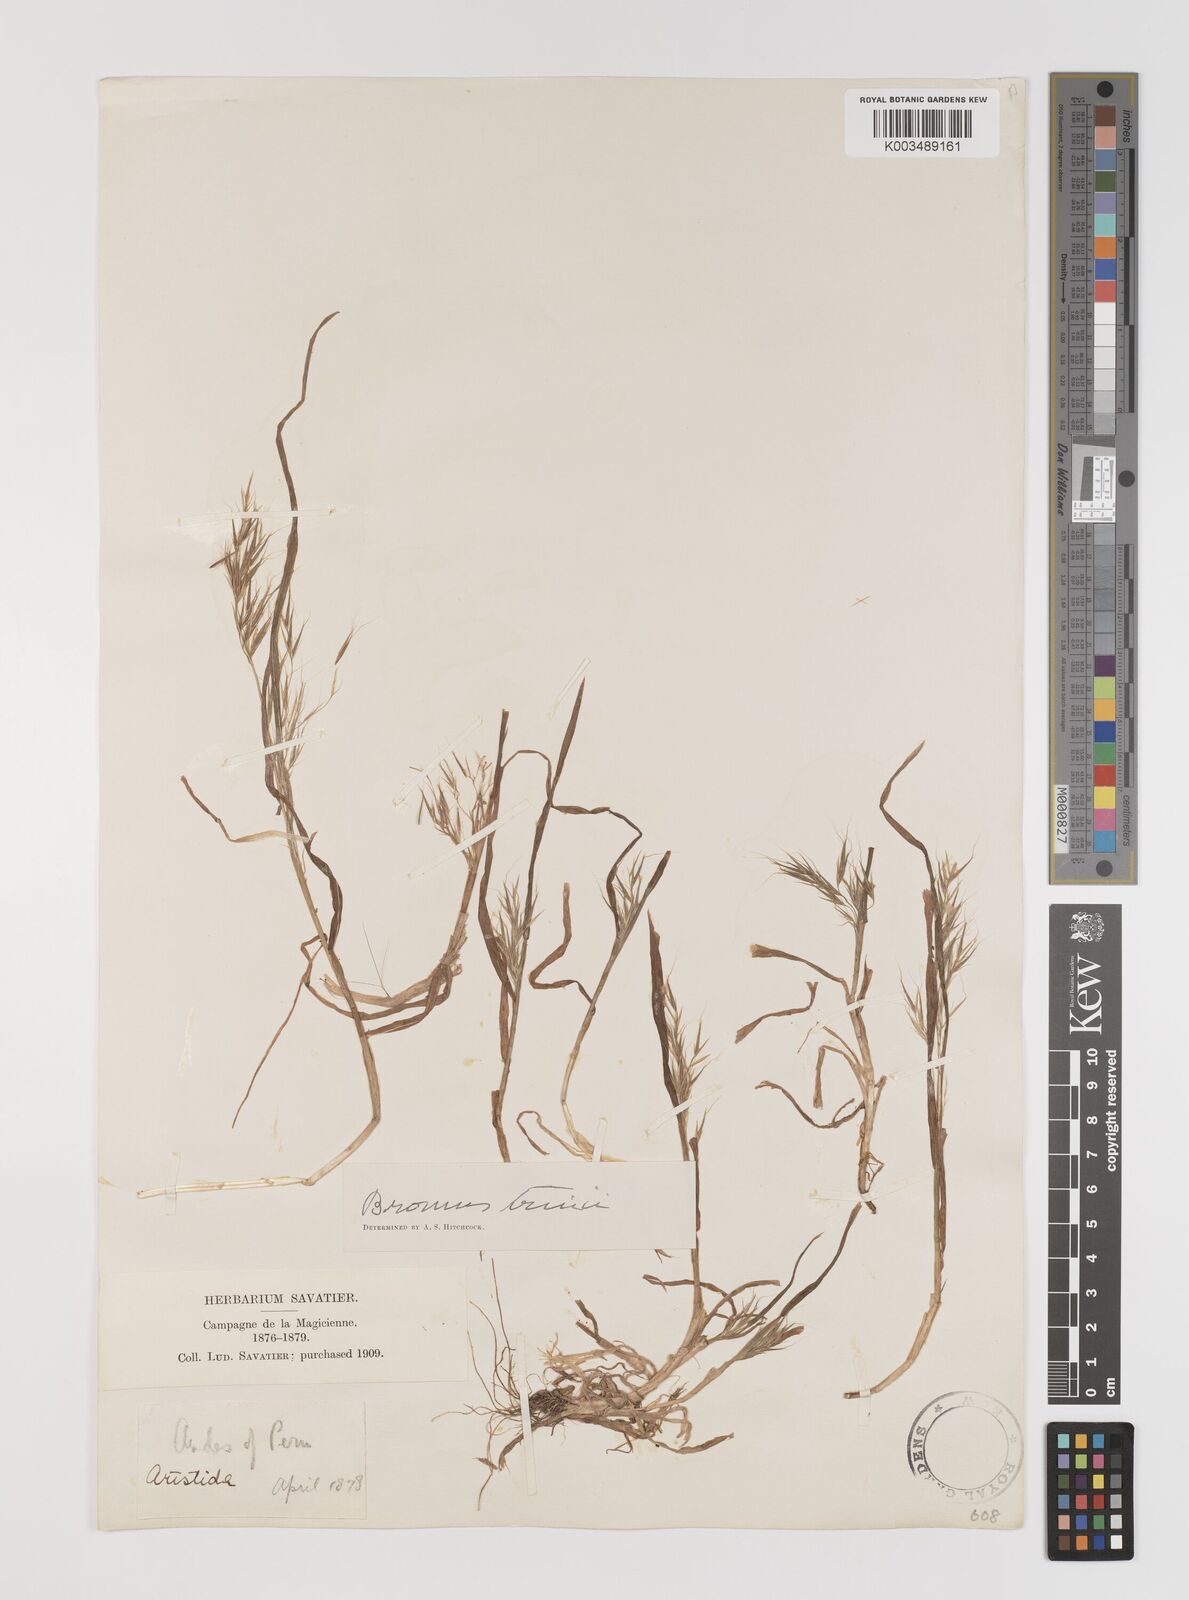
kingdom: Plantae
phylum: Tracheophyta
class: Liliopsida
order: Poales
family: Poaceae
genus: Bromus
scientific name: Bromus berteroanus
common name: Chilean chess
